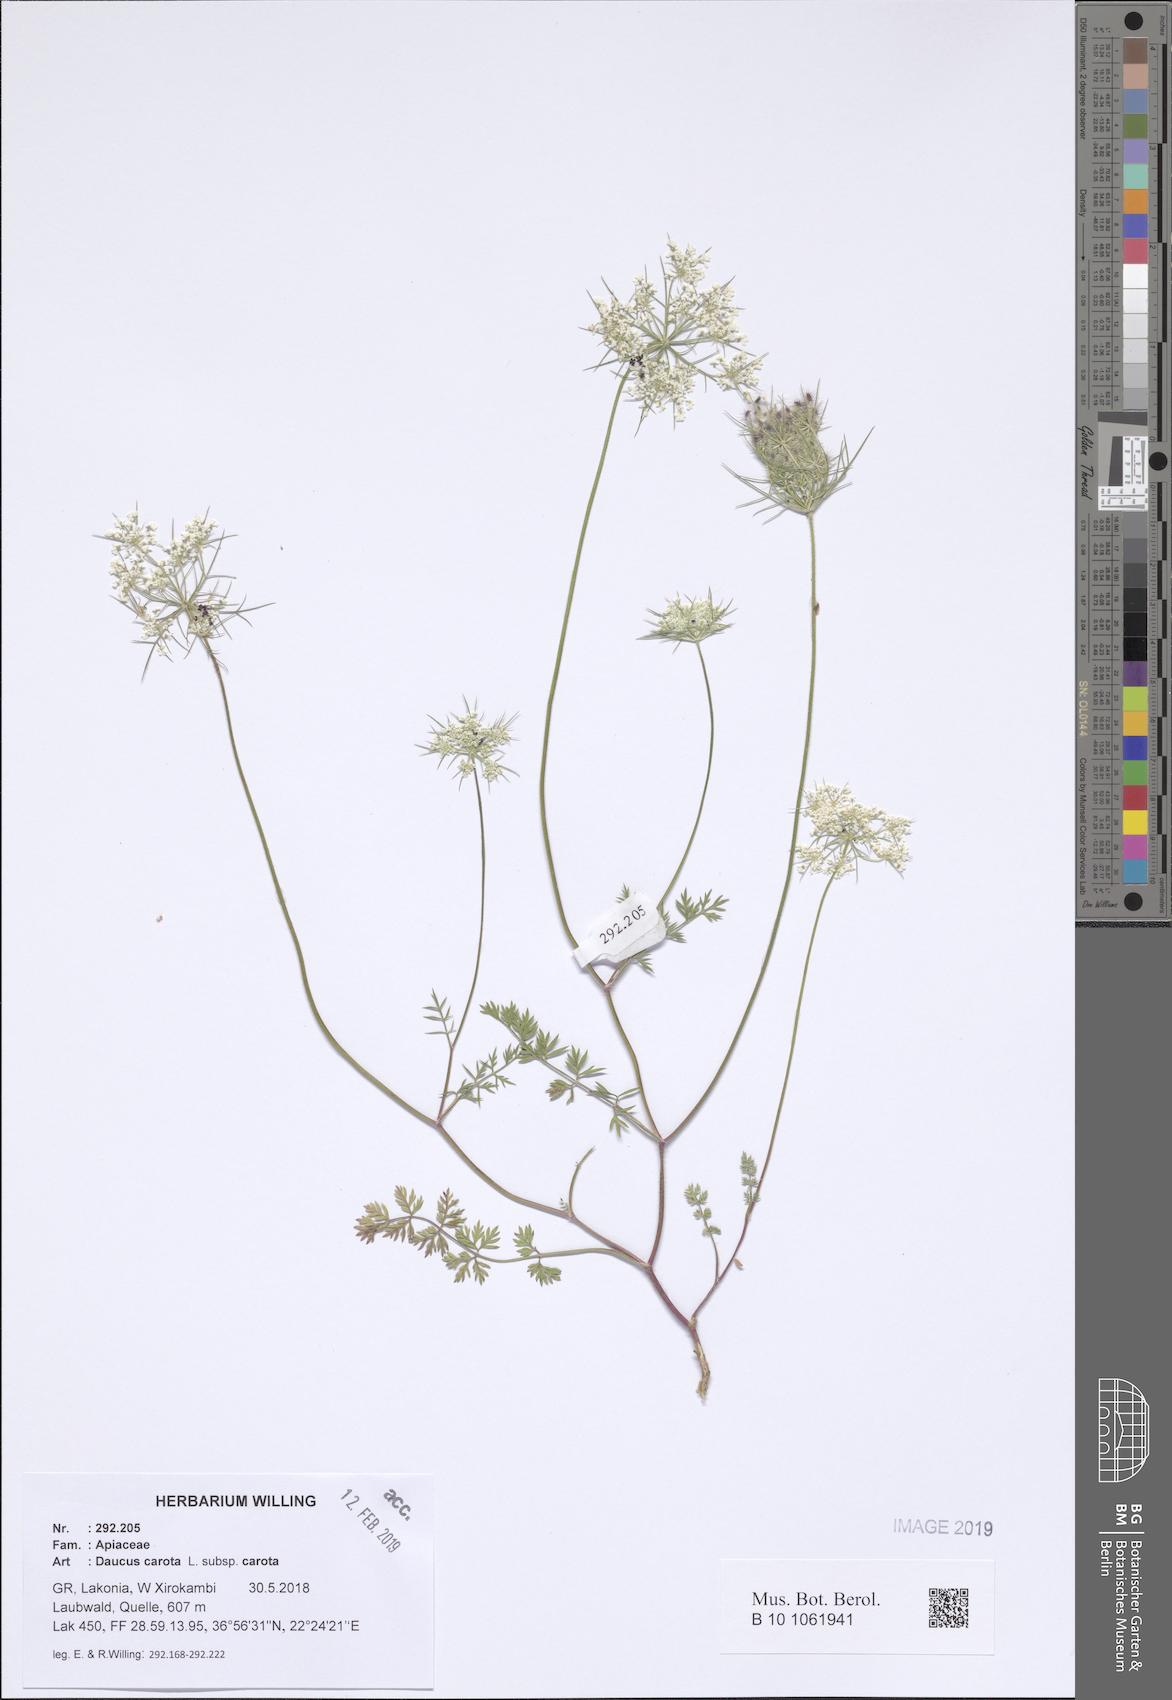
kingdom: Plantae
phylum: Tracheophyta
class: Magnoliopsida
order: Apiales
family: Apiaceae
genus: Daucus
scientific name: Daucus carota
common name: Wild carrot
